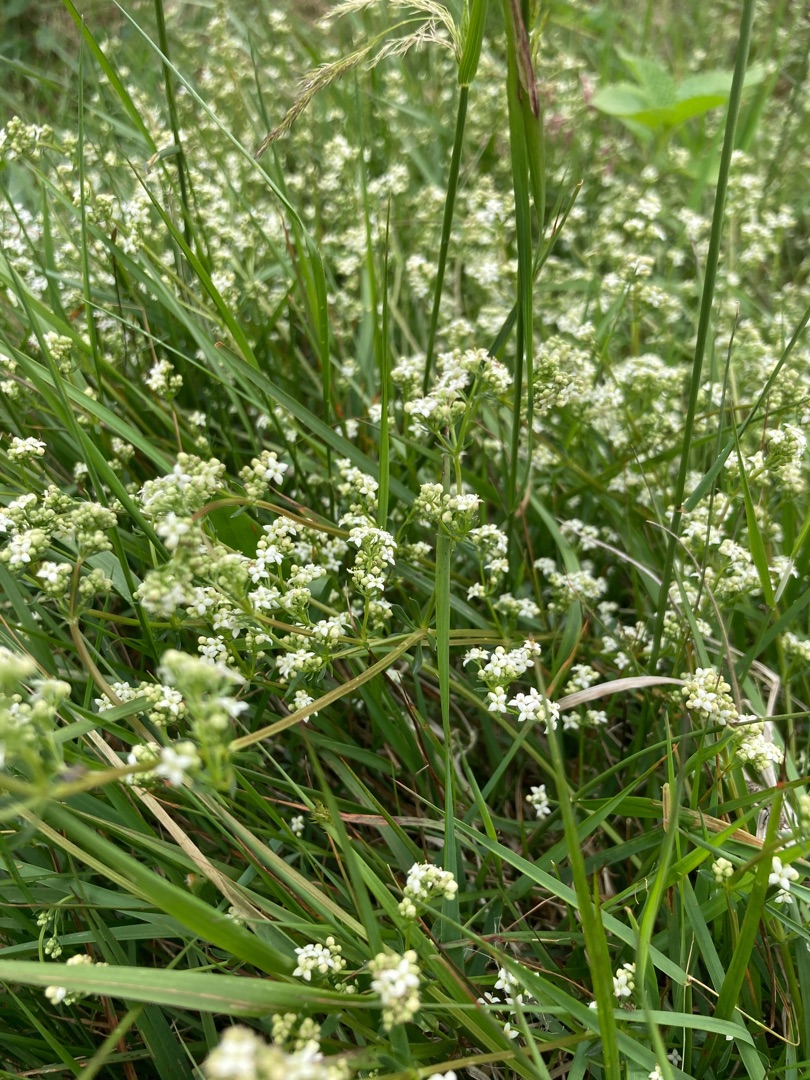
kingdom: Plantae
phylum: Tracheophyta
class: Magnoliopsida
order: Gentianales
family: Rubiaceae
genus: Galium
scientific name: Galium mollugo
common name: Hvid snerre
